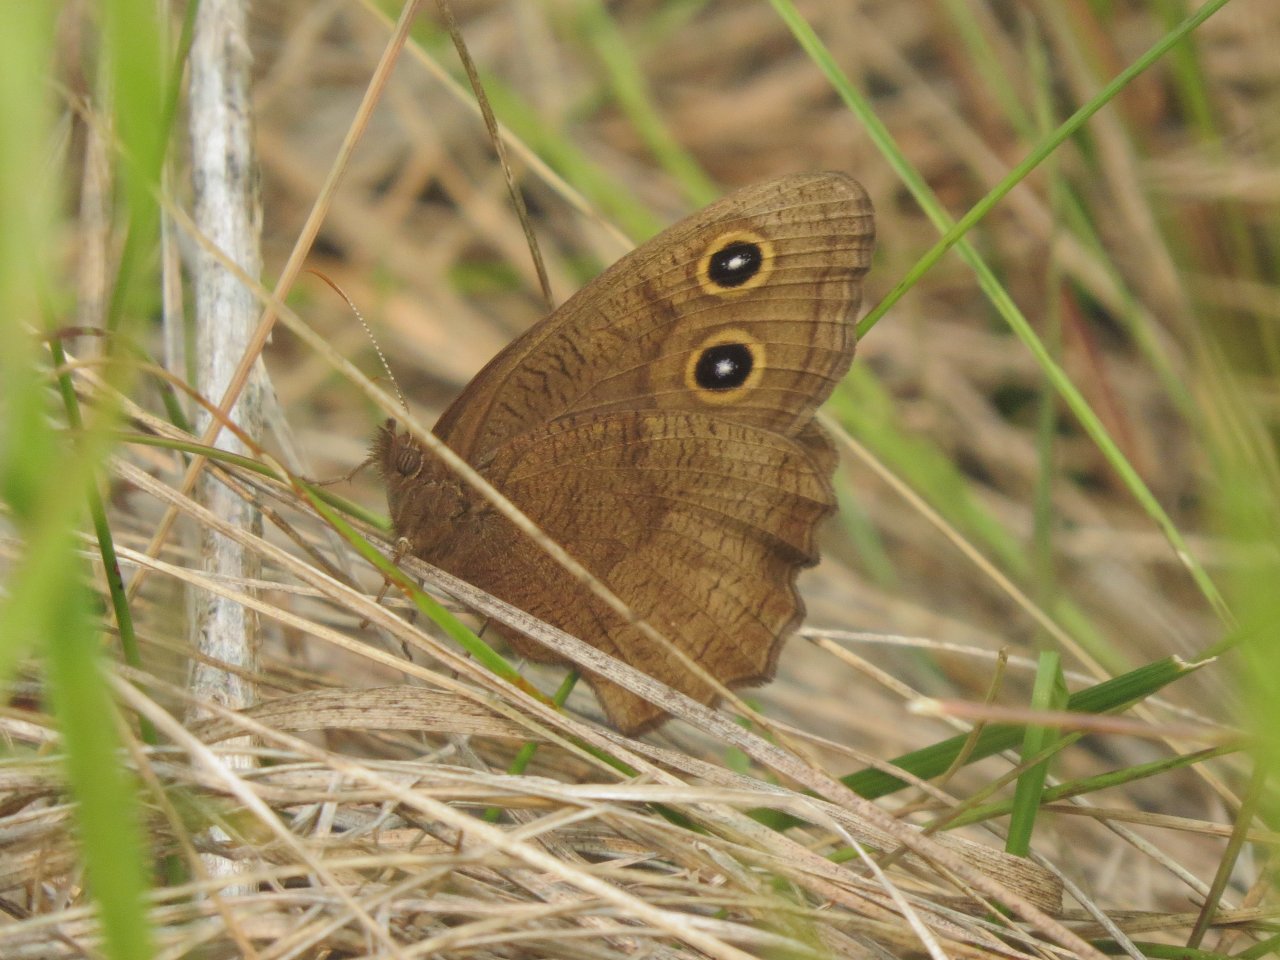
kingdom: Animalia
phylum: Arthropoda
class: Insecta
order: Lepidoptera
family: Nymphalidae
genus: Cercyonis
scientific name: Cercyonis pegala
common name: Common Wood-Nymph
